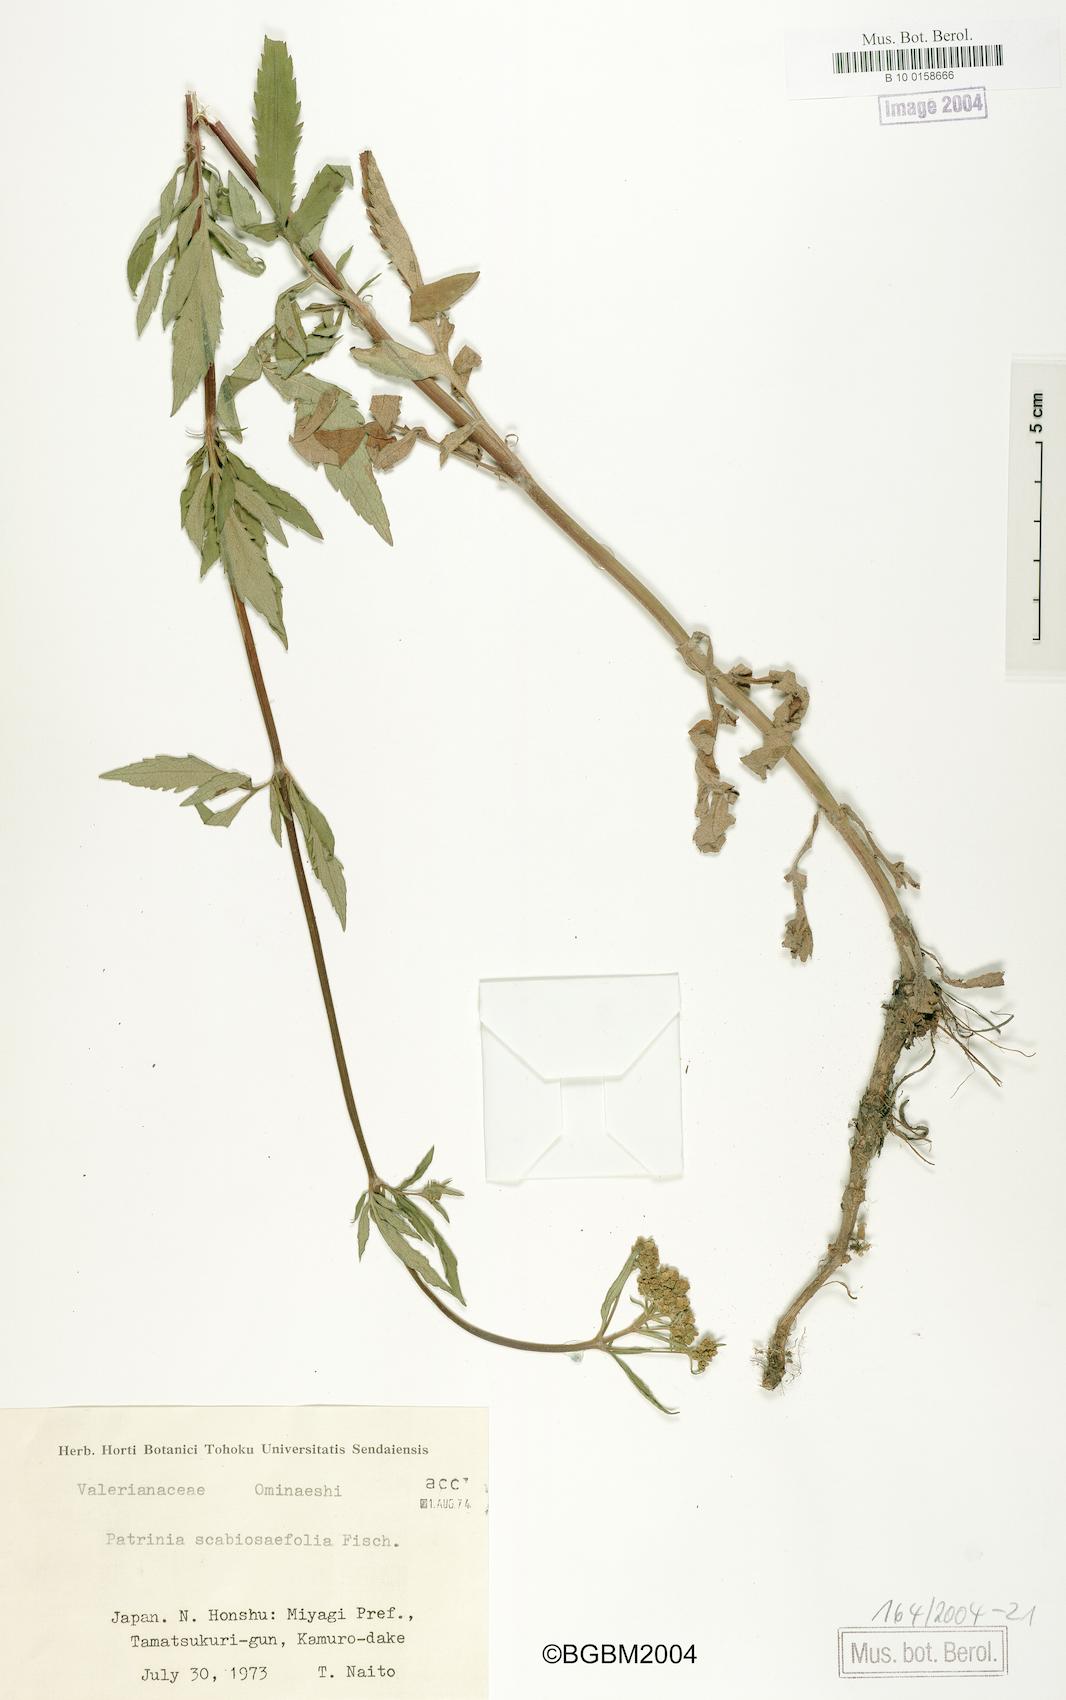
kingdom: Plantae
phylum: Tracheophyta
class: Magnoliopsida
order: Dipsacales
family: Caprifoliaceae
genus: Patrinia
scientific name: Patrinia scabiosifolia
